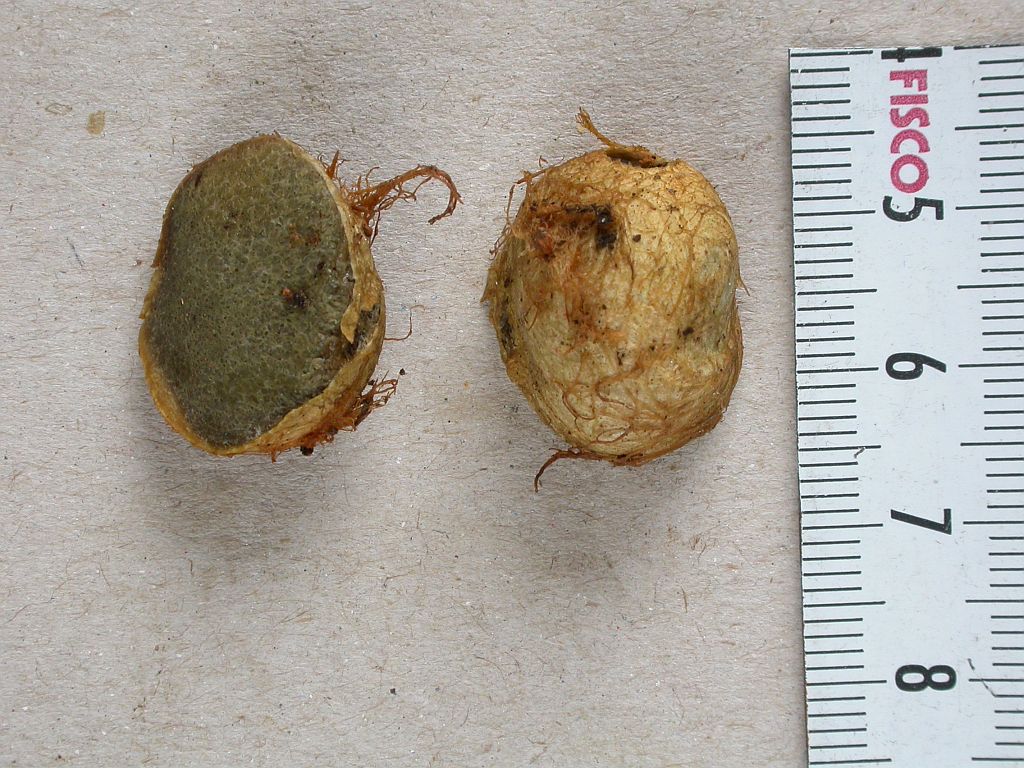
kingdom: Fungi
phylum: Basidiomycota
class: Agaricomycetes
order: Boletales
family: Rhizopogonaceae
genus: Rhizopogon
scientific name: Rhizopogon obtextus
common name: gul skægtrøffel
